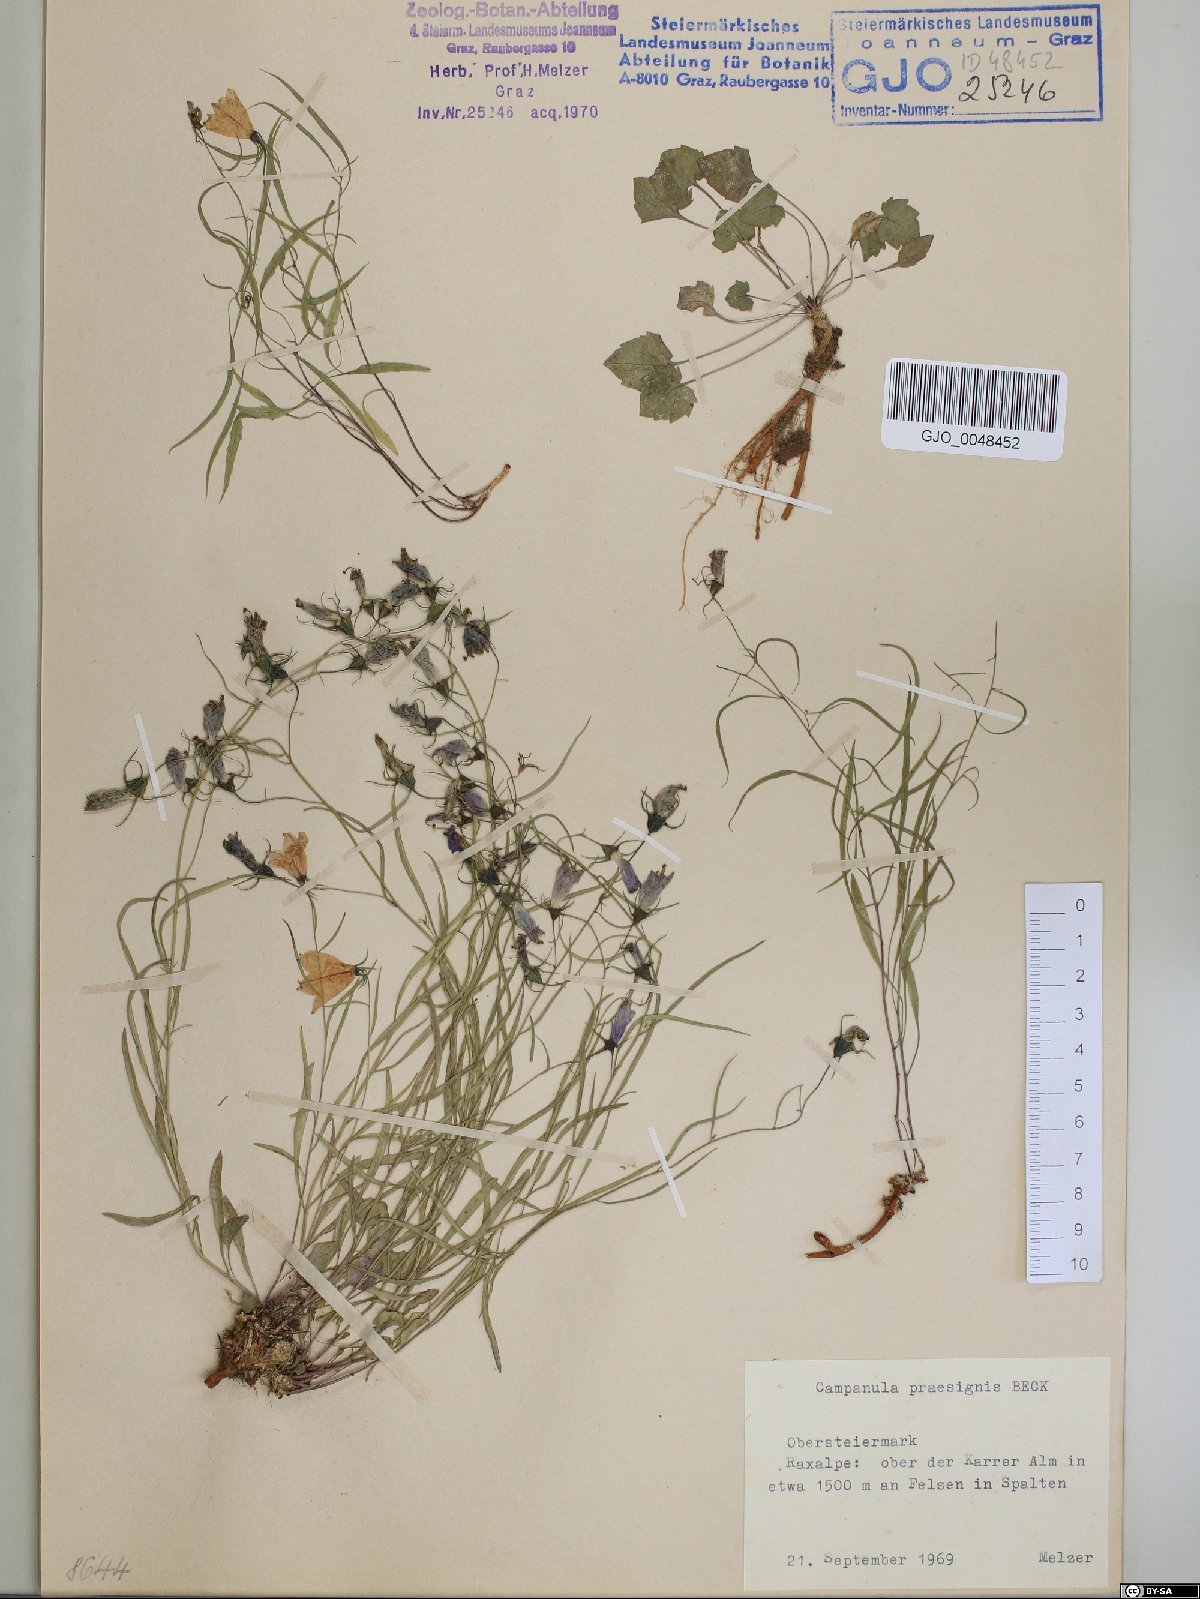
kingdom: Plantae
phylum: Tracheophyta
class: Magnoliopsida
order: Asterales
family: Campanulaceae
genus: Campanula
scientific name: Campanula praesignis
